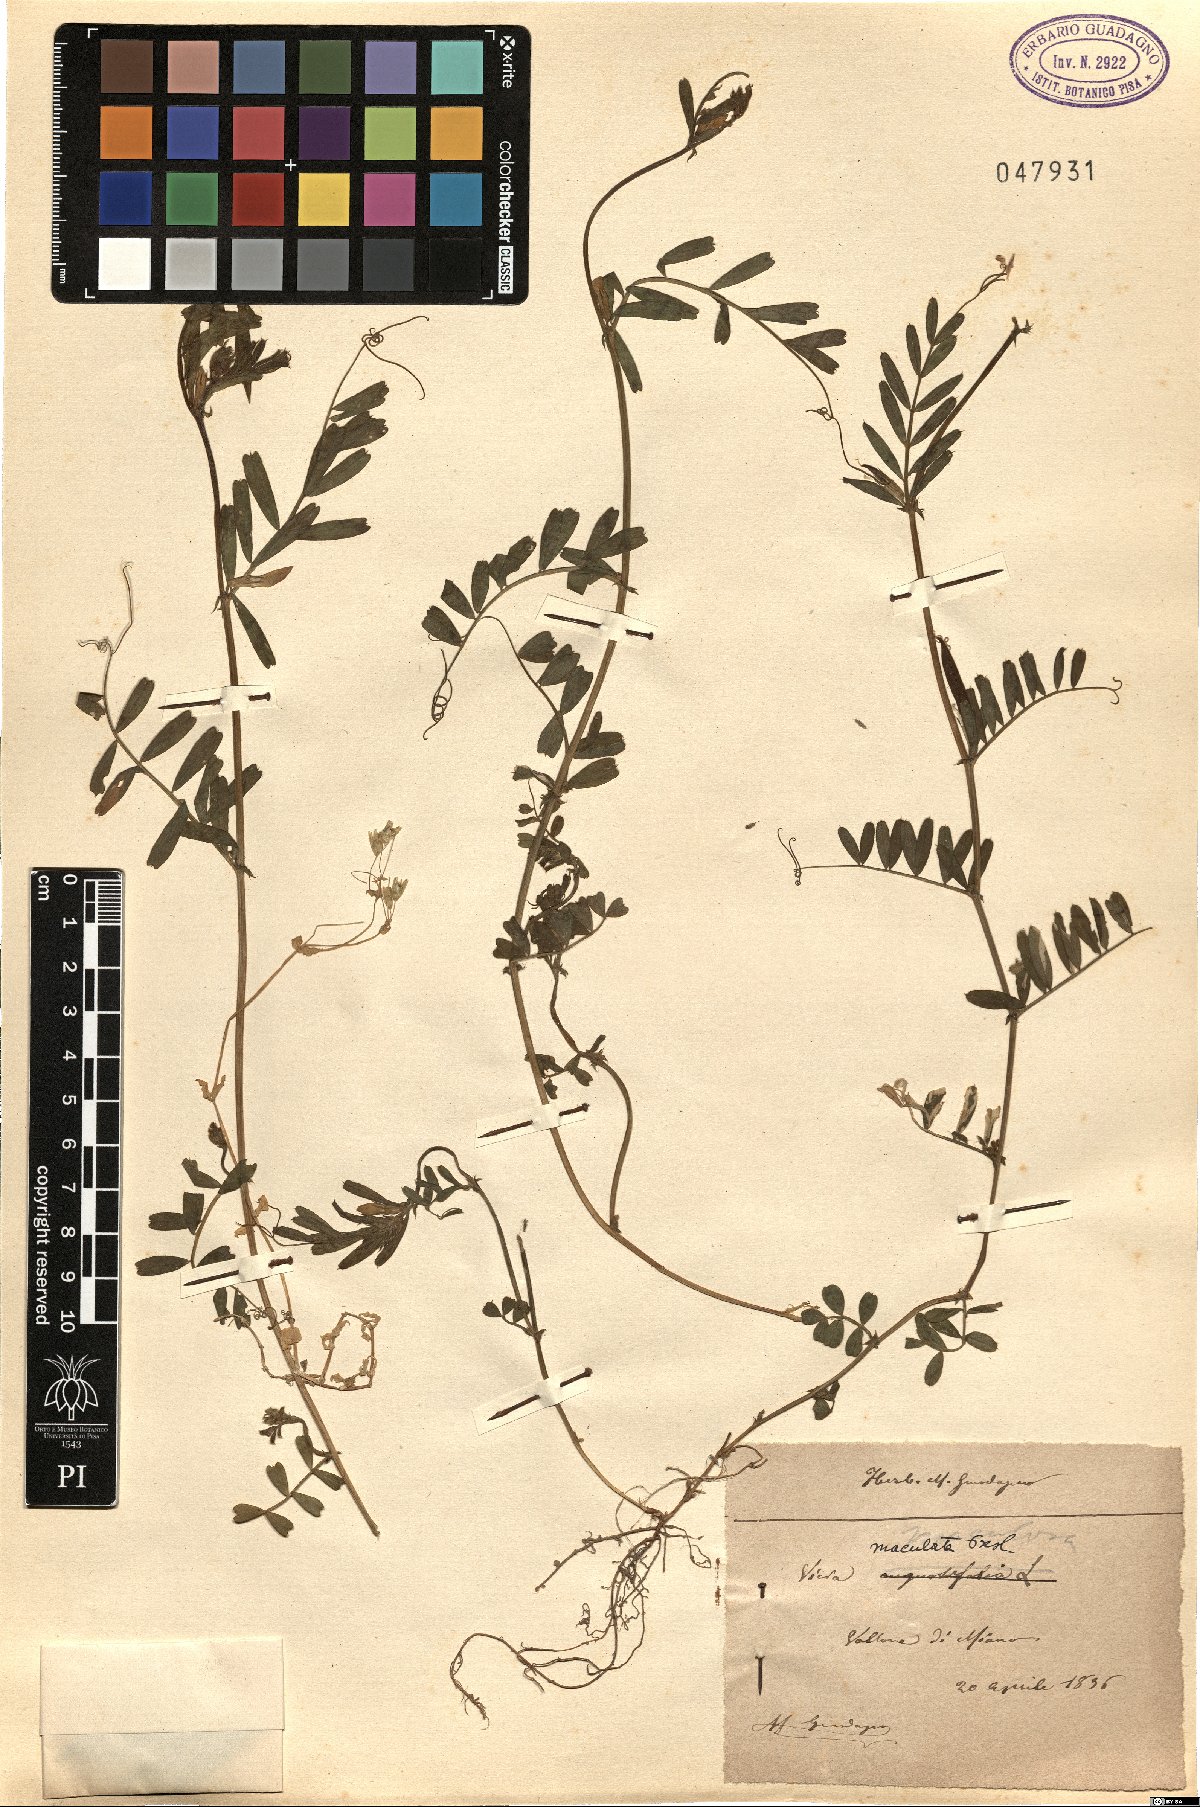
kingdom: Plantae
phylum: Tracheophyta
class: Magnoliopsida
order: Fabales
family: Fabaceae
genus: Vicia
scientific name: Vicia sativa
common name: Garden vetch
